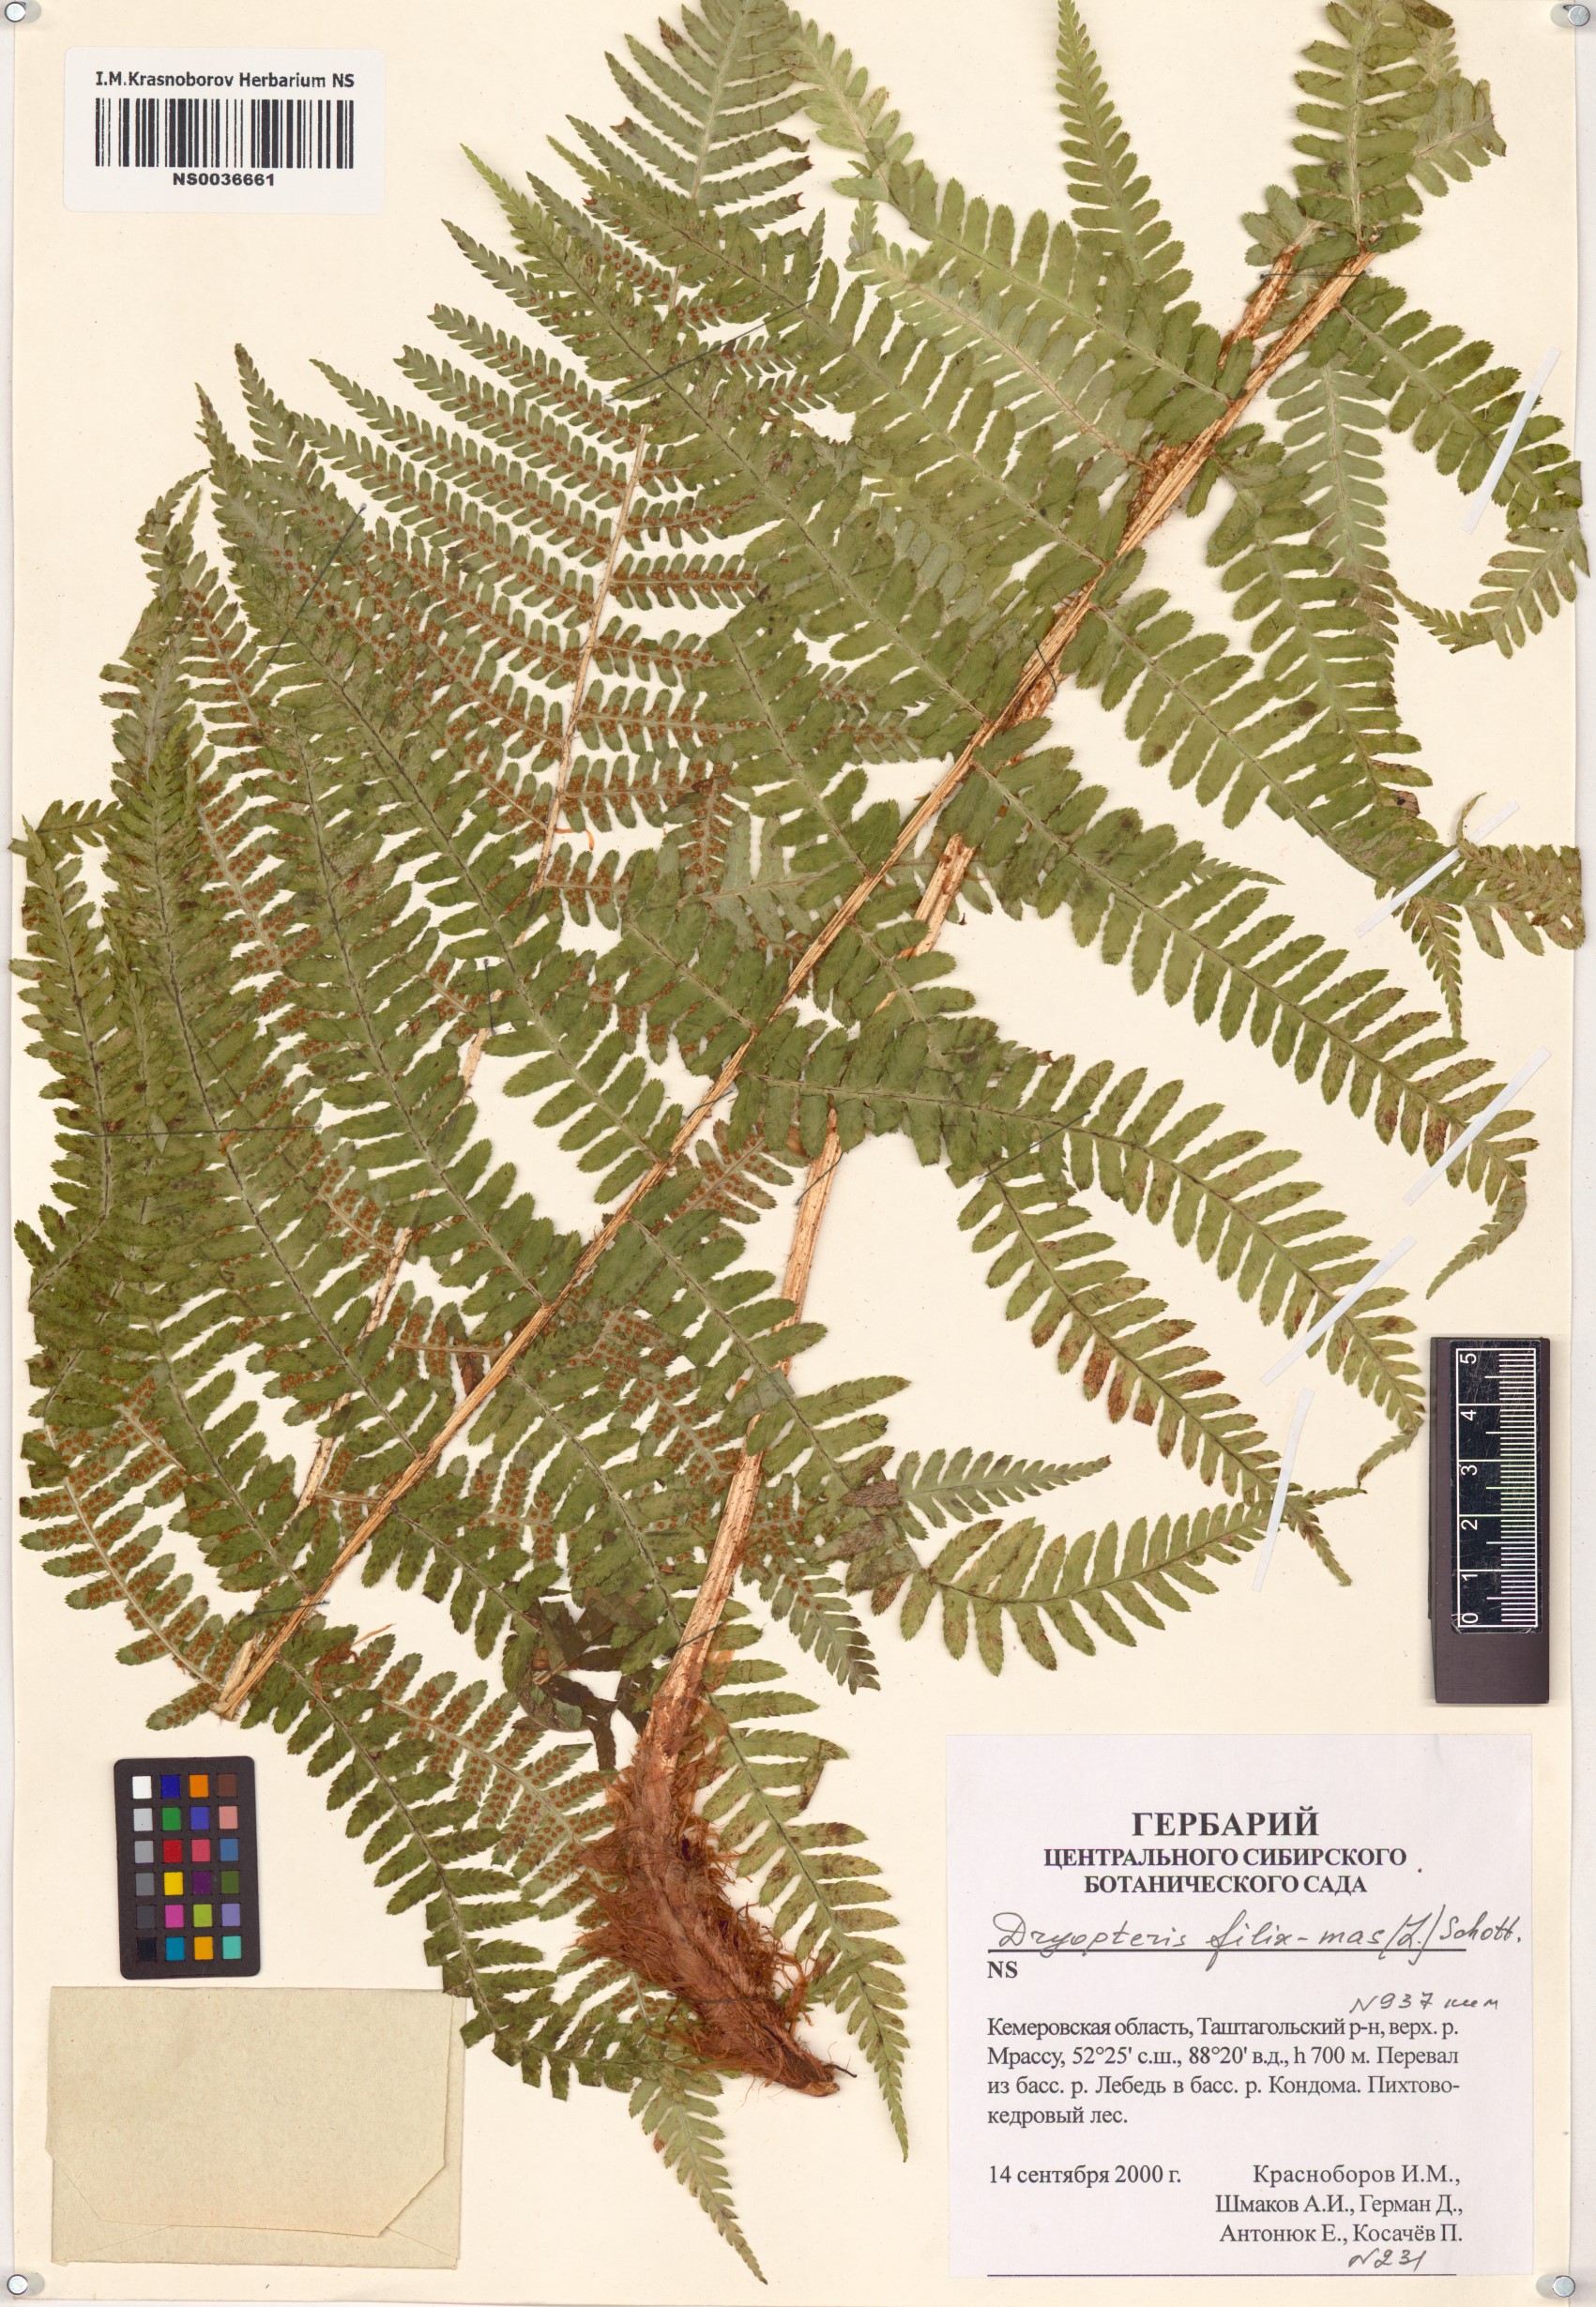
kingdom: Plantae
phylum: Tracheophyta
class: Polypodiopsida
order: Polypodiales
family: Dryopteridaceae
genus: Dryopteris
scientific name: Dryopteris filix-mas
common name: Male fern
